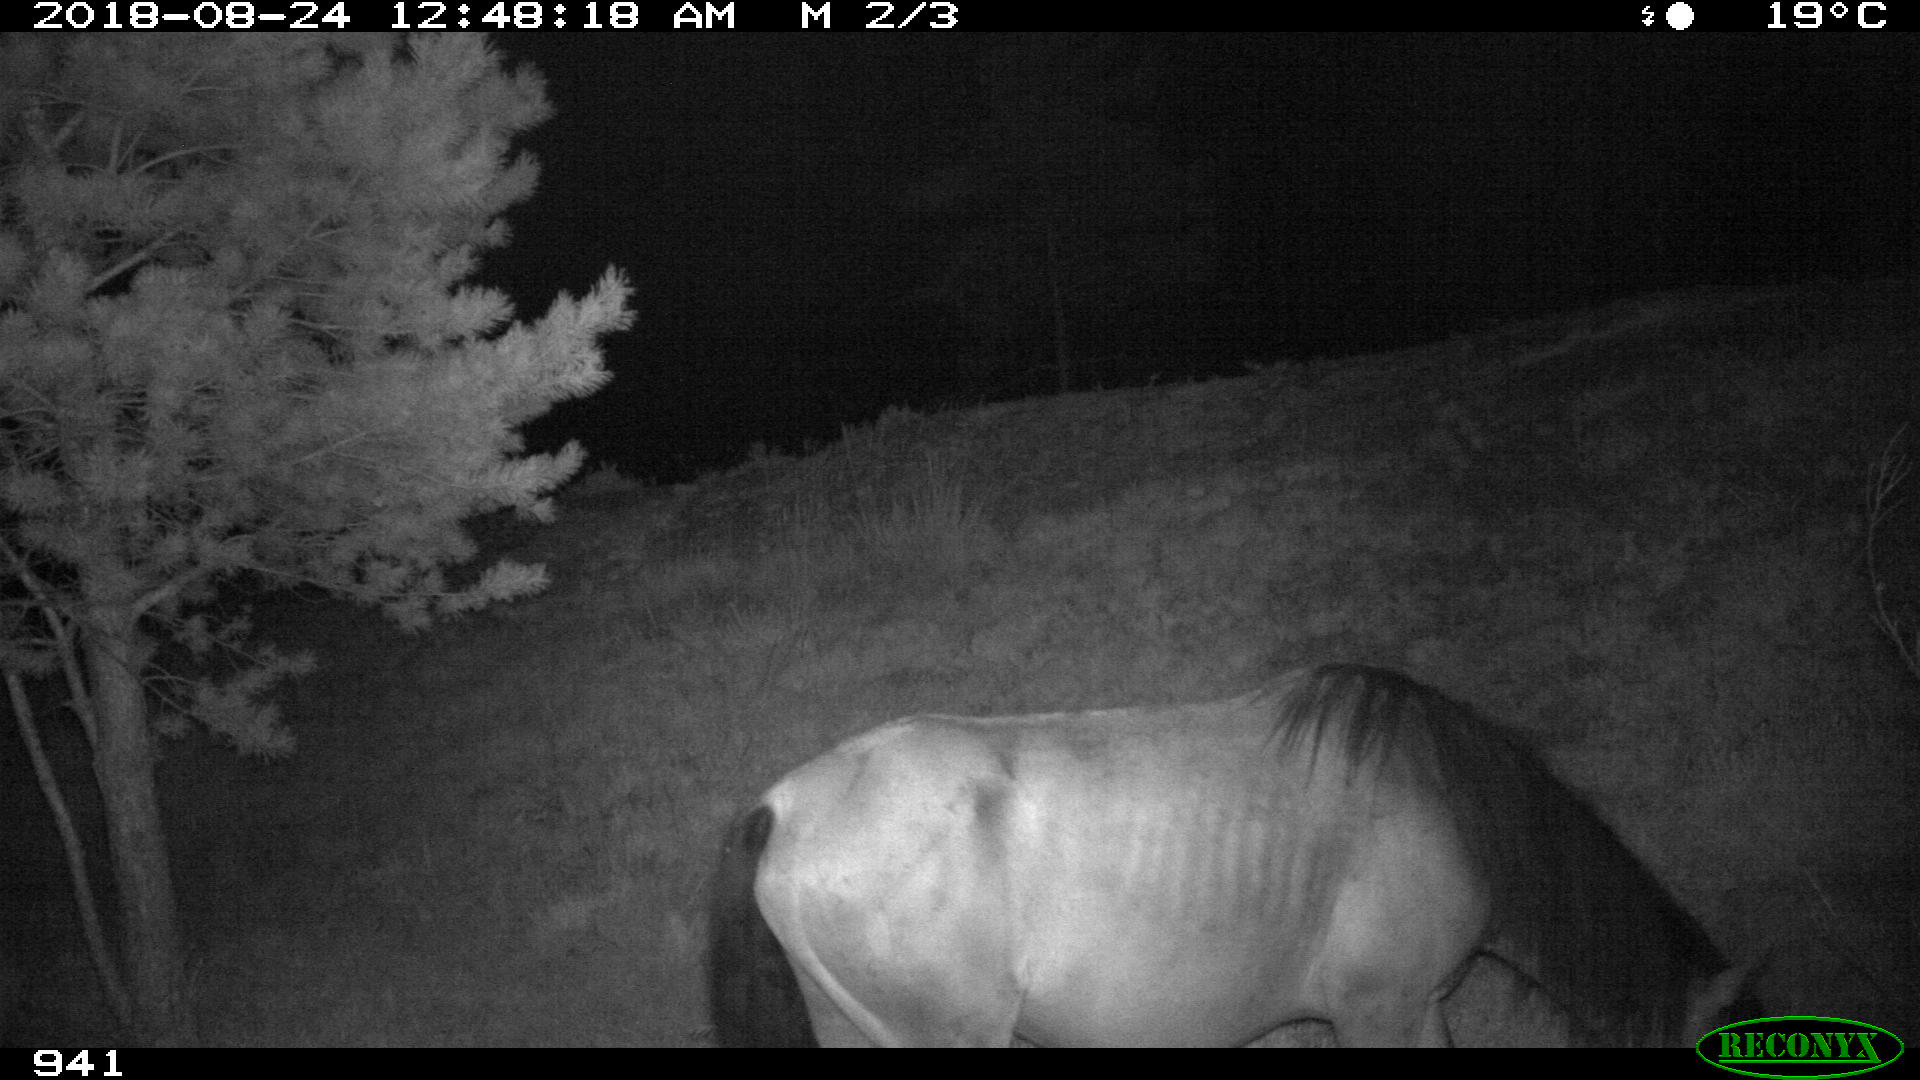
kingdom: Animalia
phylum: Chordata
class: Mammalia
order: Perissodactyla
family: Equidae
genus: Equus
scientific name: Equus caballus
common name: Horse
